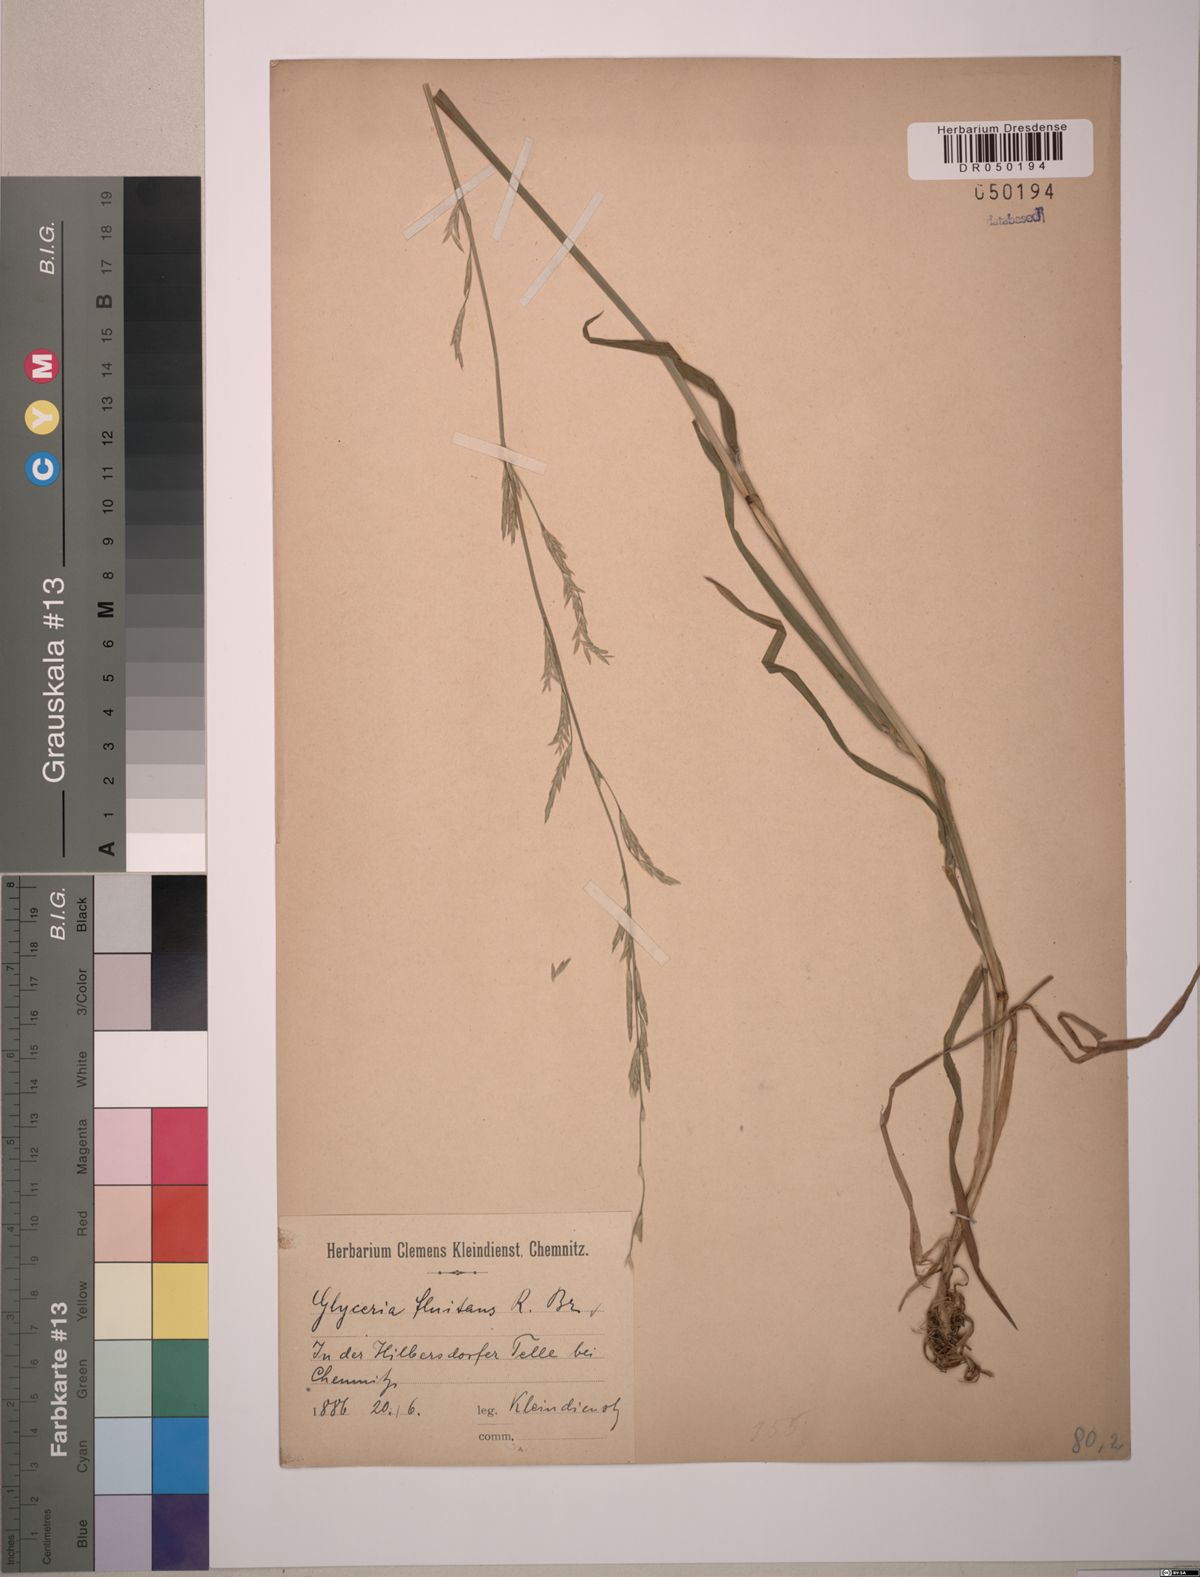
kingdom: Plantae
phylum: Tracheophyta
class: Liliopsida
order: Poales
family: Poaceae
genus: Glyceria
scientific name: Glyceria fluitans
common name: Floating sweet-grass
